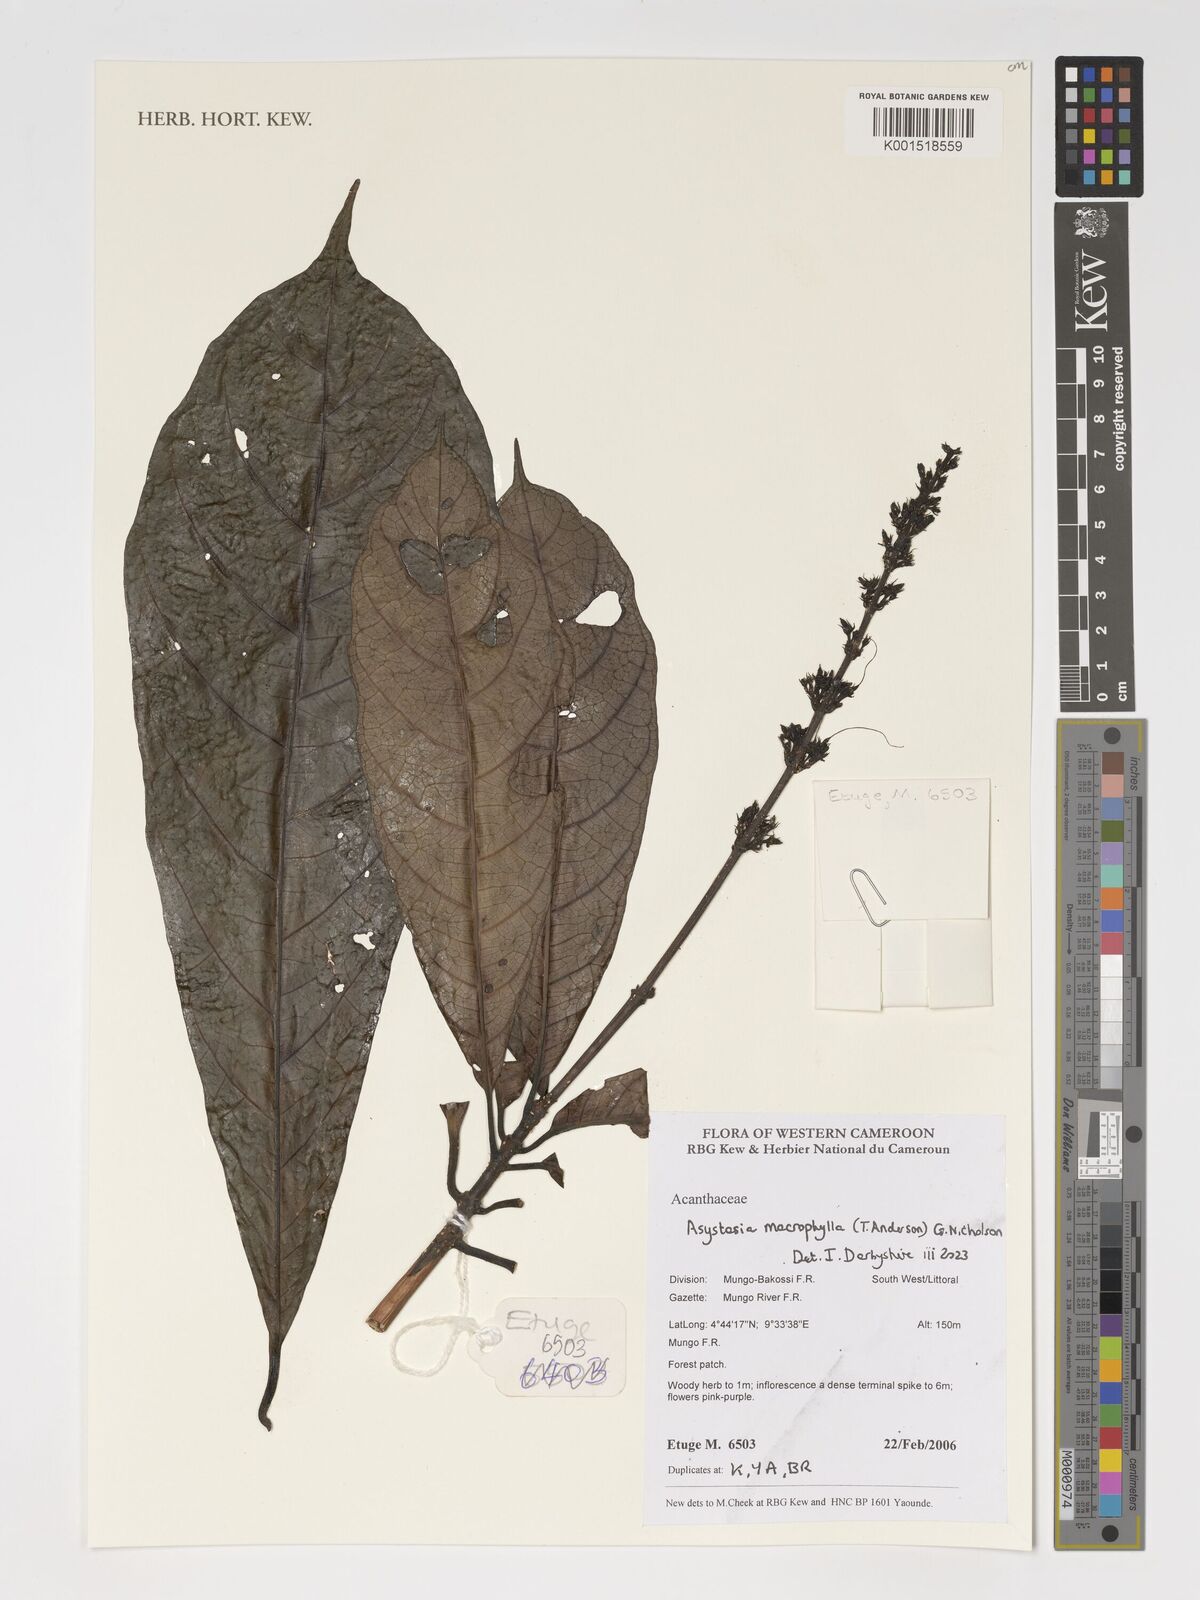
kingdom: Plantae
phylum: Tracheophyta
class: Magnoliopsida
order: Lamiales
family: Acanthaceae
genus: Asystasia
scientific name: Asystasia macrophylla
